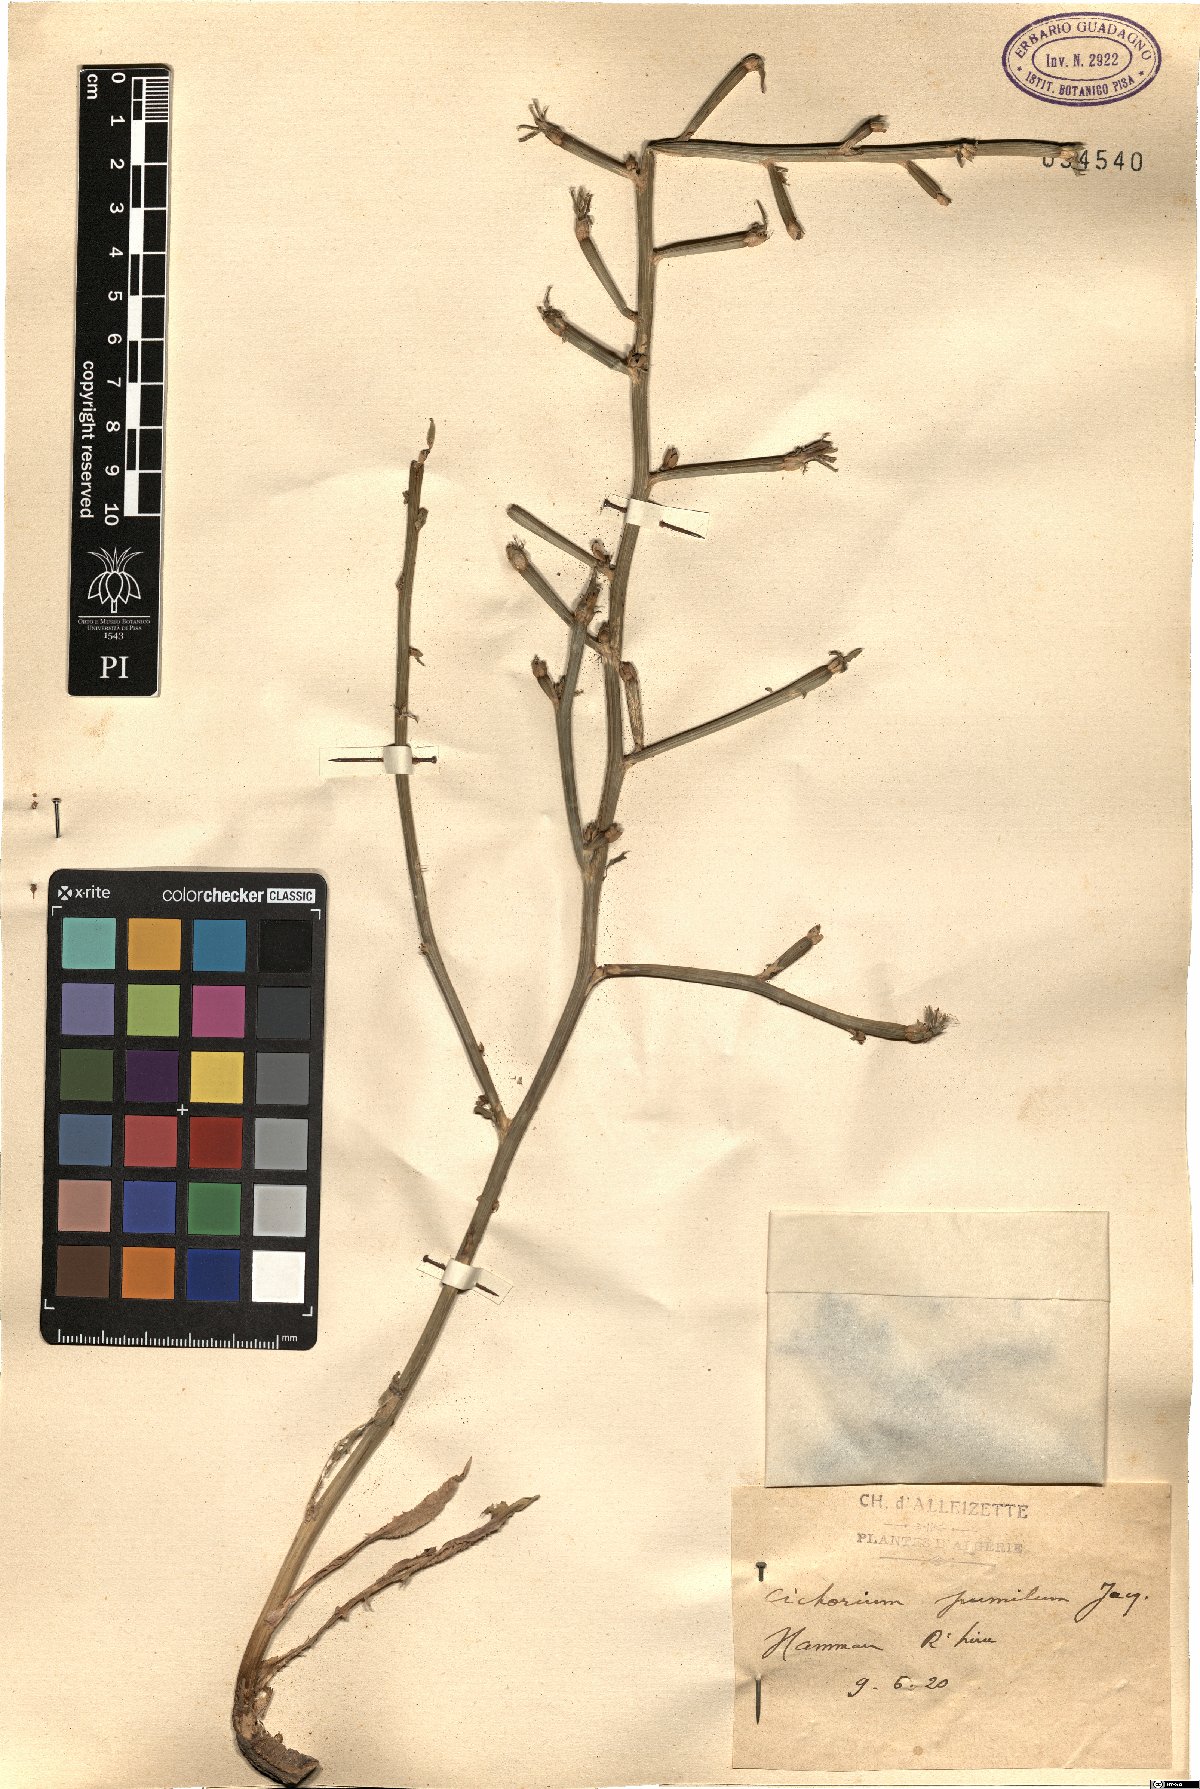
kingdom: Plantae
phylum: Tracheophyta
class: Magnoliopsida
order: Asterales
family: Asteraceae
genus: Cichorium
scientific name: Cichorium pumilum
